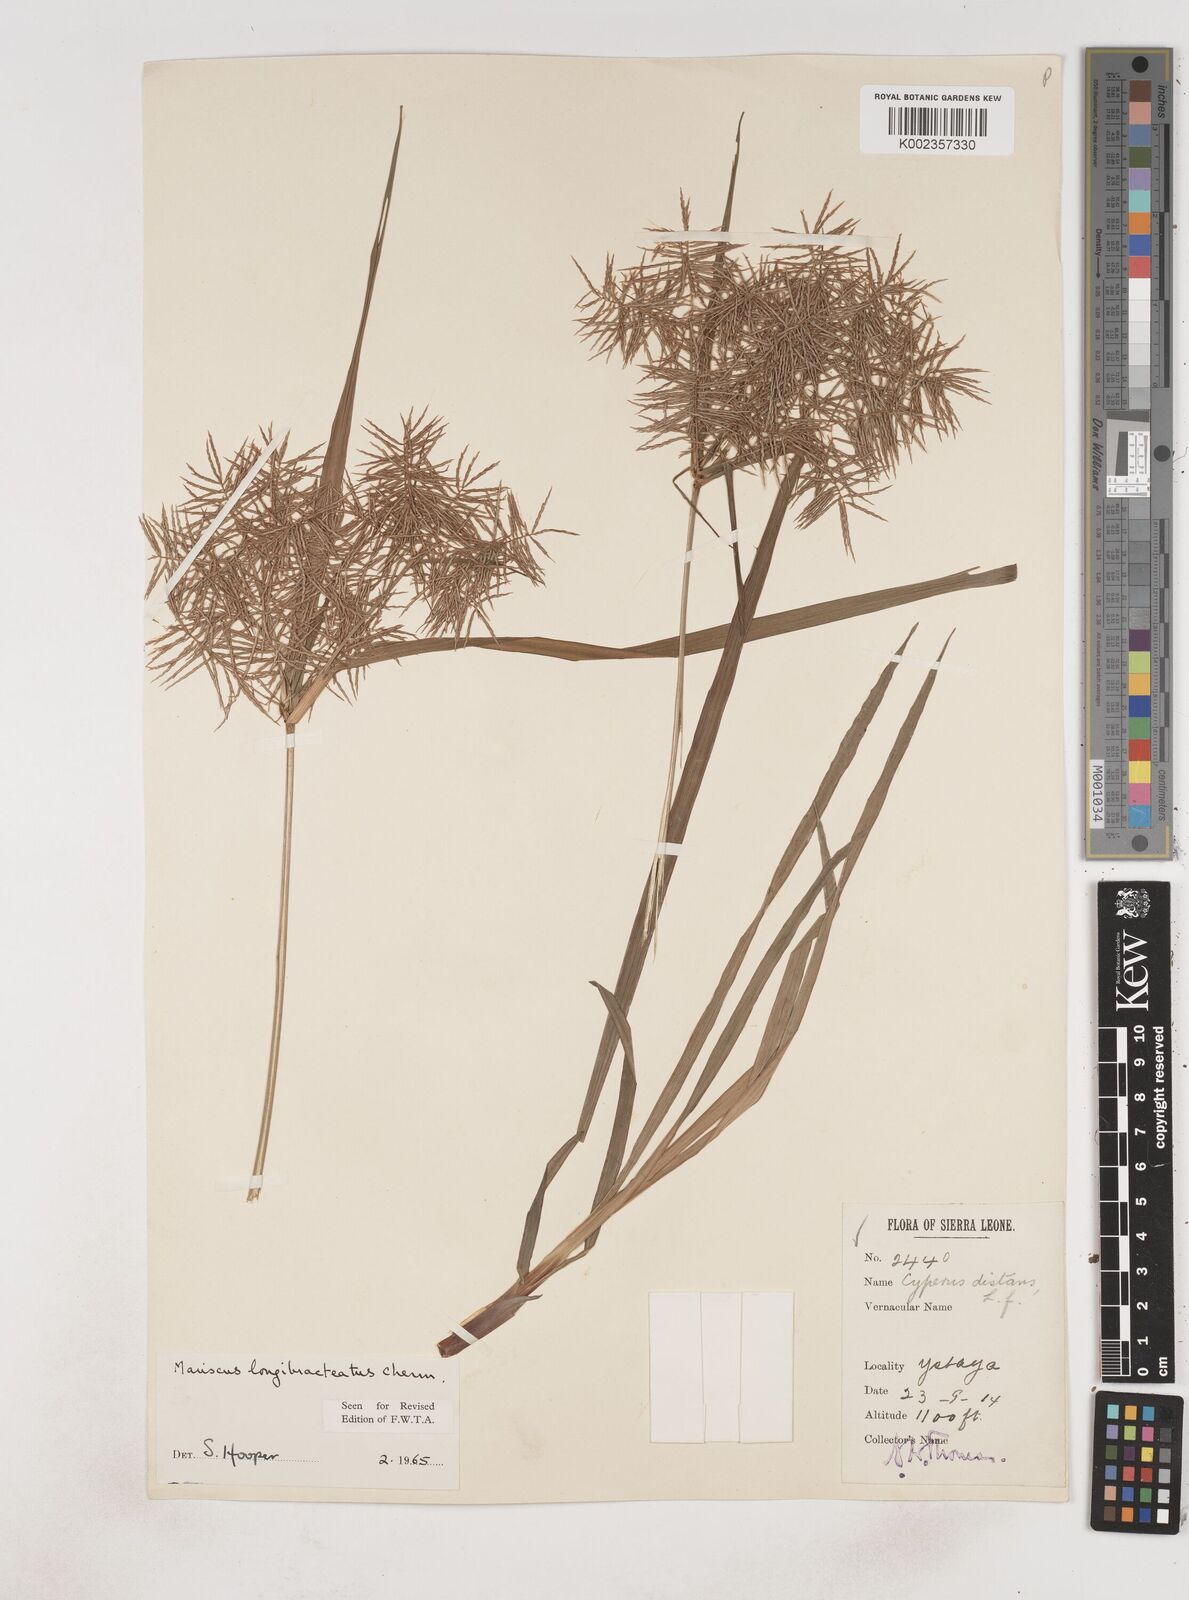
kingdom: Plantae
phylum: Tracheophyta
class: Liliopsida
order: Poales
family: Cyperaceae
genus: Cyperus
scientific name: Cyperus distans
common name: Slender cyperus
